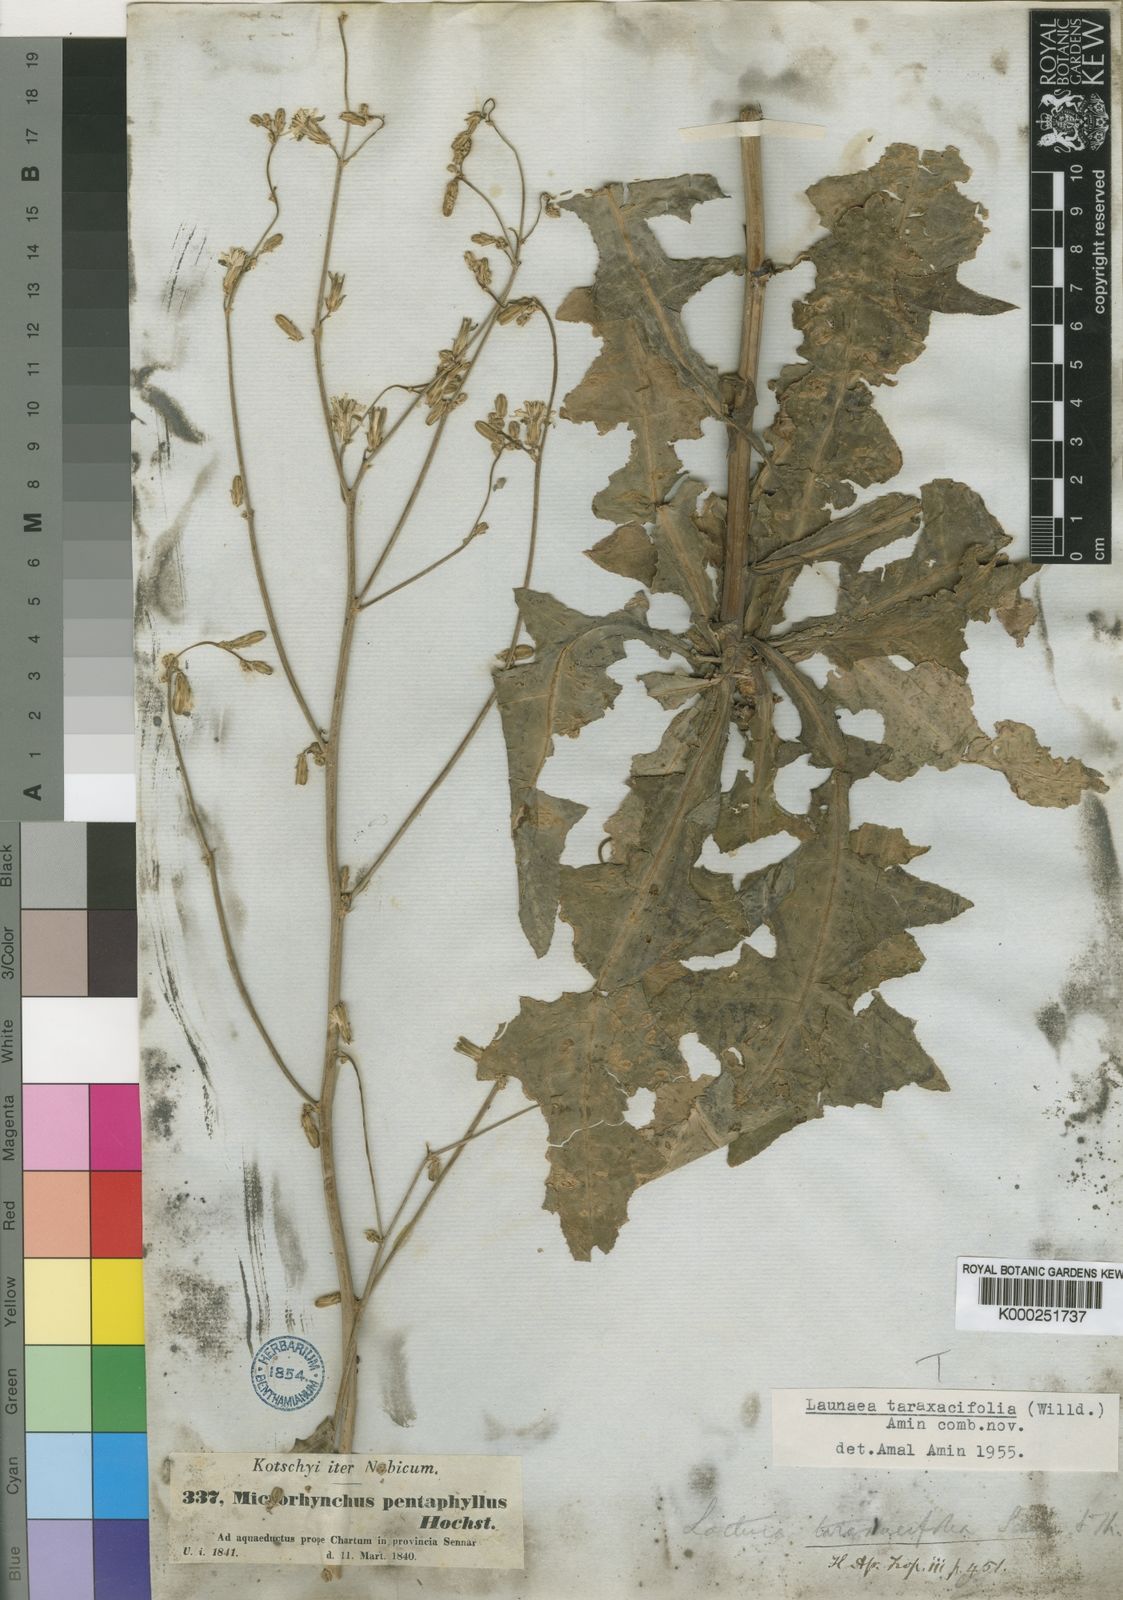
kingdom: Plantae
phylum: Tracheophyta
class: Magnoliopsida
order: Asterales
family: Asteraceae
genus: Launaea
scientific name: Launaea taraxacifolia
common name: African-lettuce
